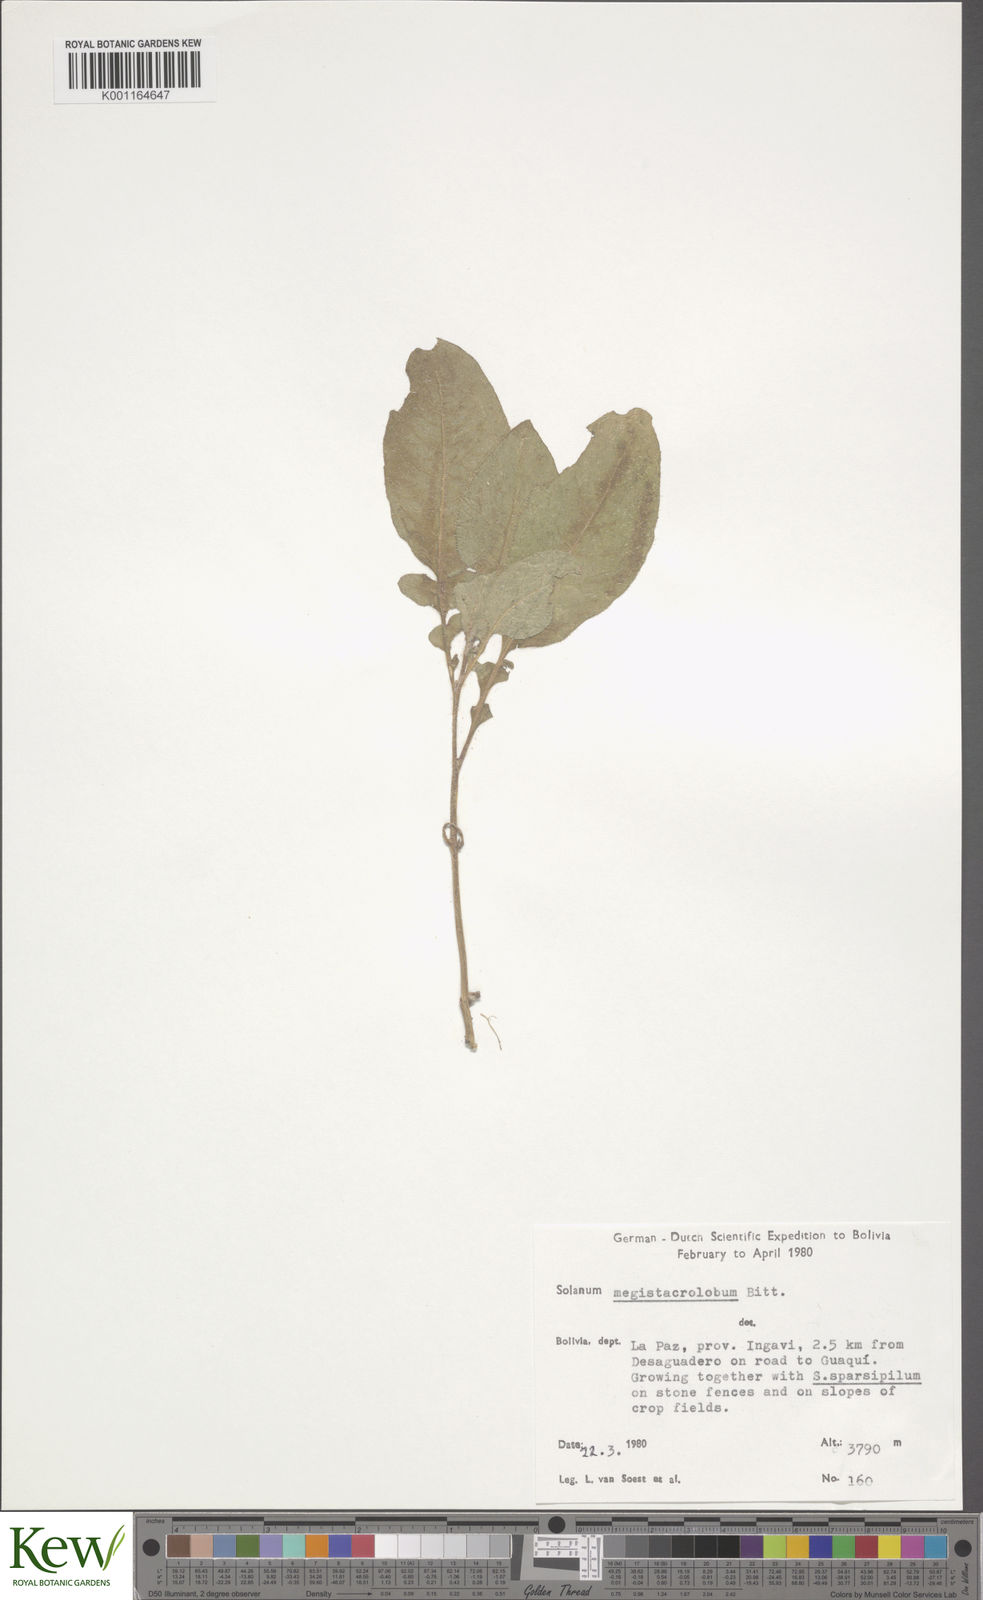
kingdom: Plantae
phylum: Tracheophyta
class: Magnoliopsida
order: Solanales
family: Solanaceae
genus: Solanum
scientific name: Solanum boliviense
